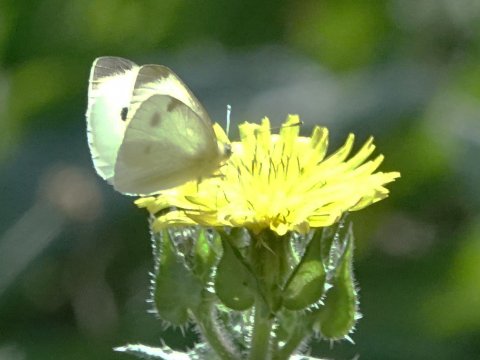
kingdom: Animalia
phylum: Arthropoda
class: Insecta
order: Lepidoptera
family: Pieridae
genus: Pieris
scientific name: Pieris rapae
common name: Cabbage White
